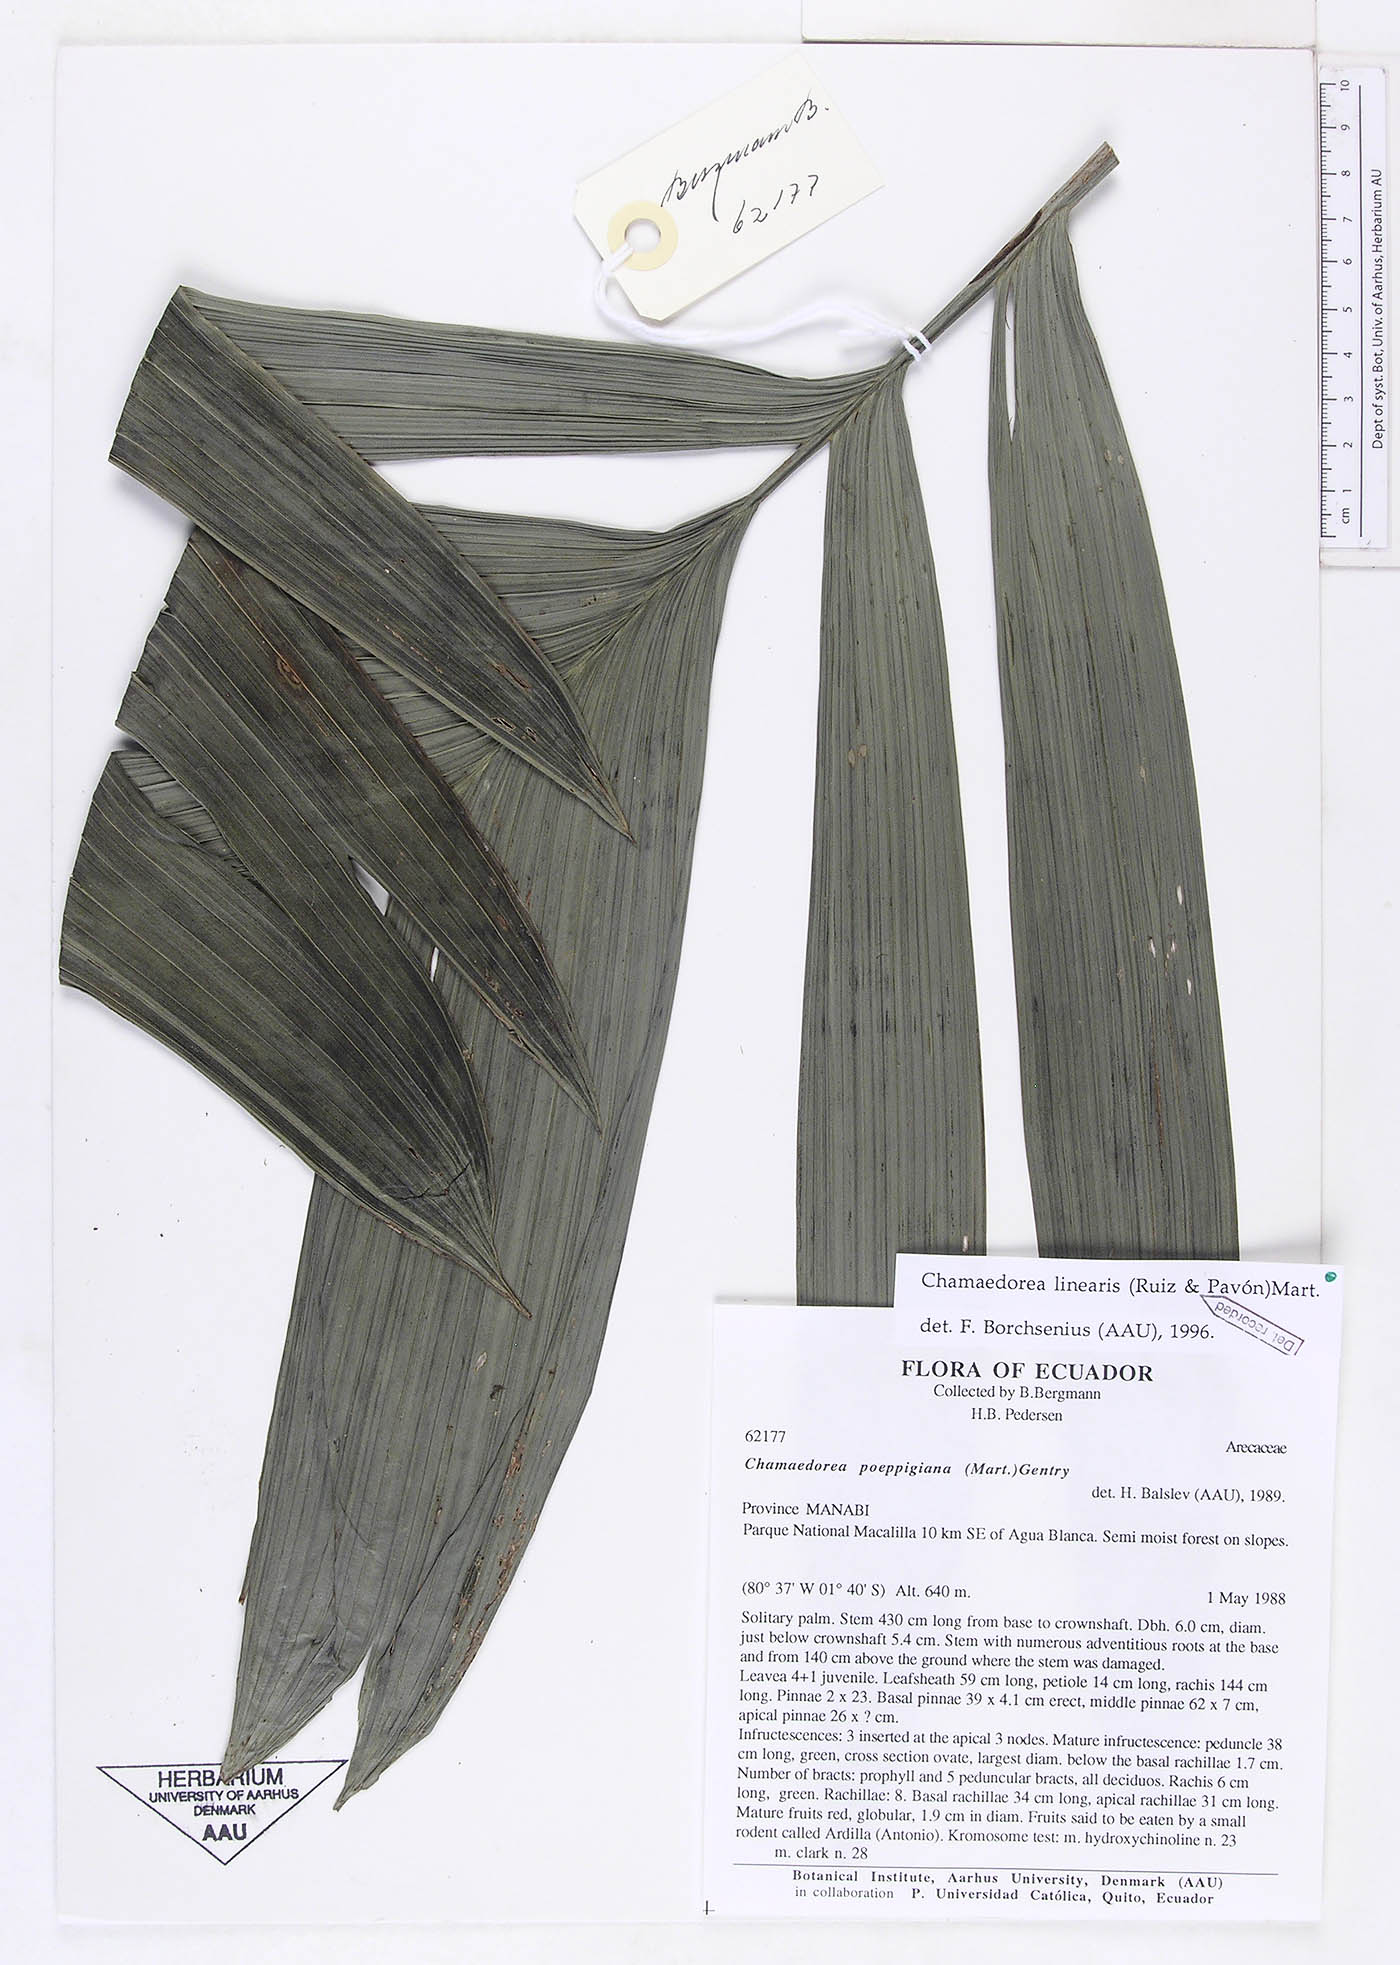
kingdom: Plantae
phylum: Tracheophyta
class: Liliopsida
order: Arecales
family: Arecaceae
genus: Chamaedorea
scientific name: Chamaedorea linearis
